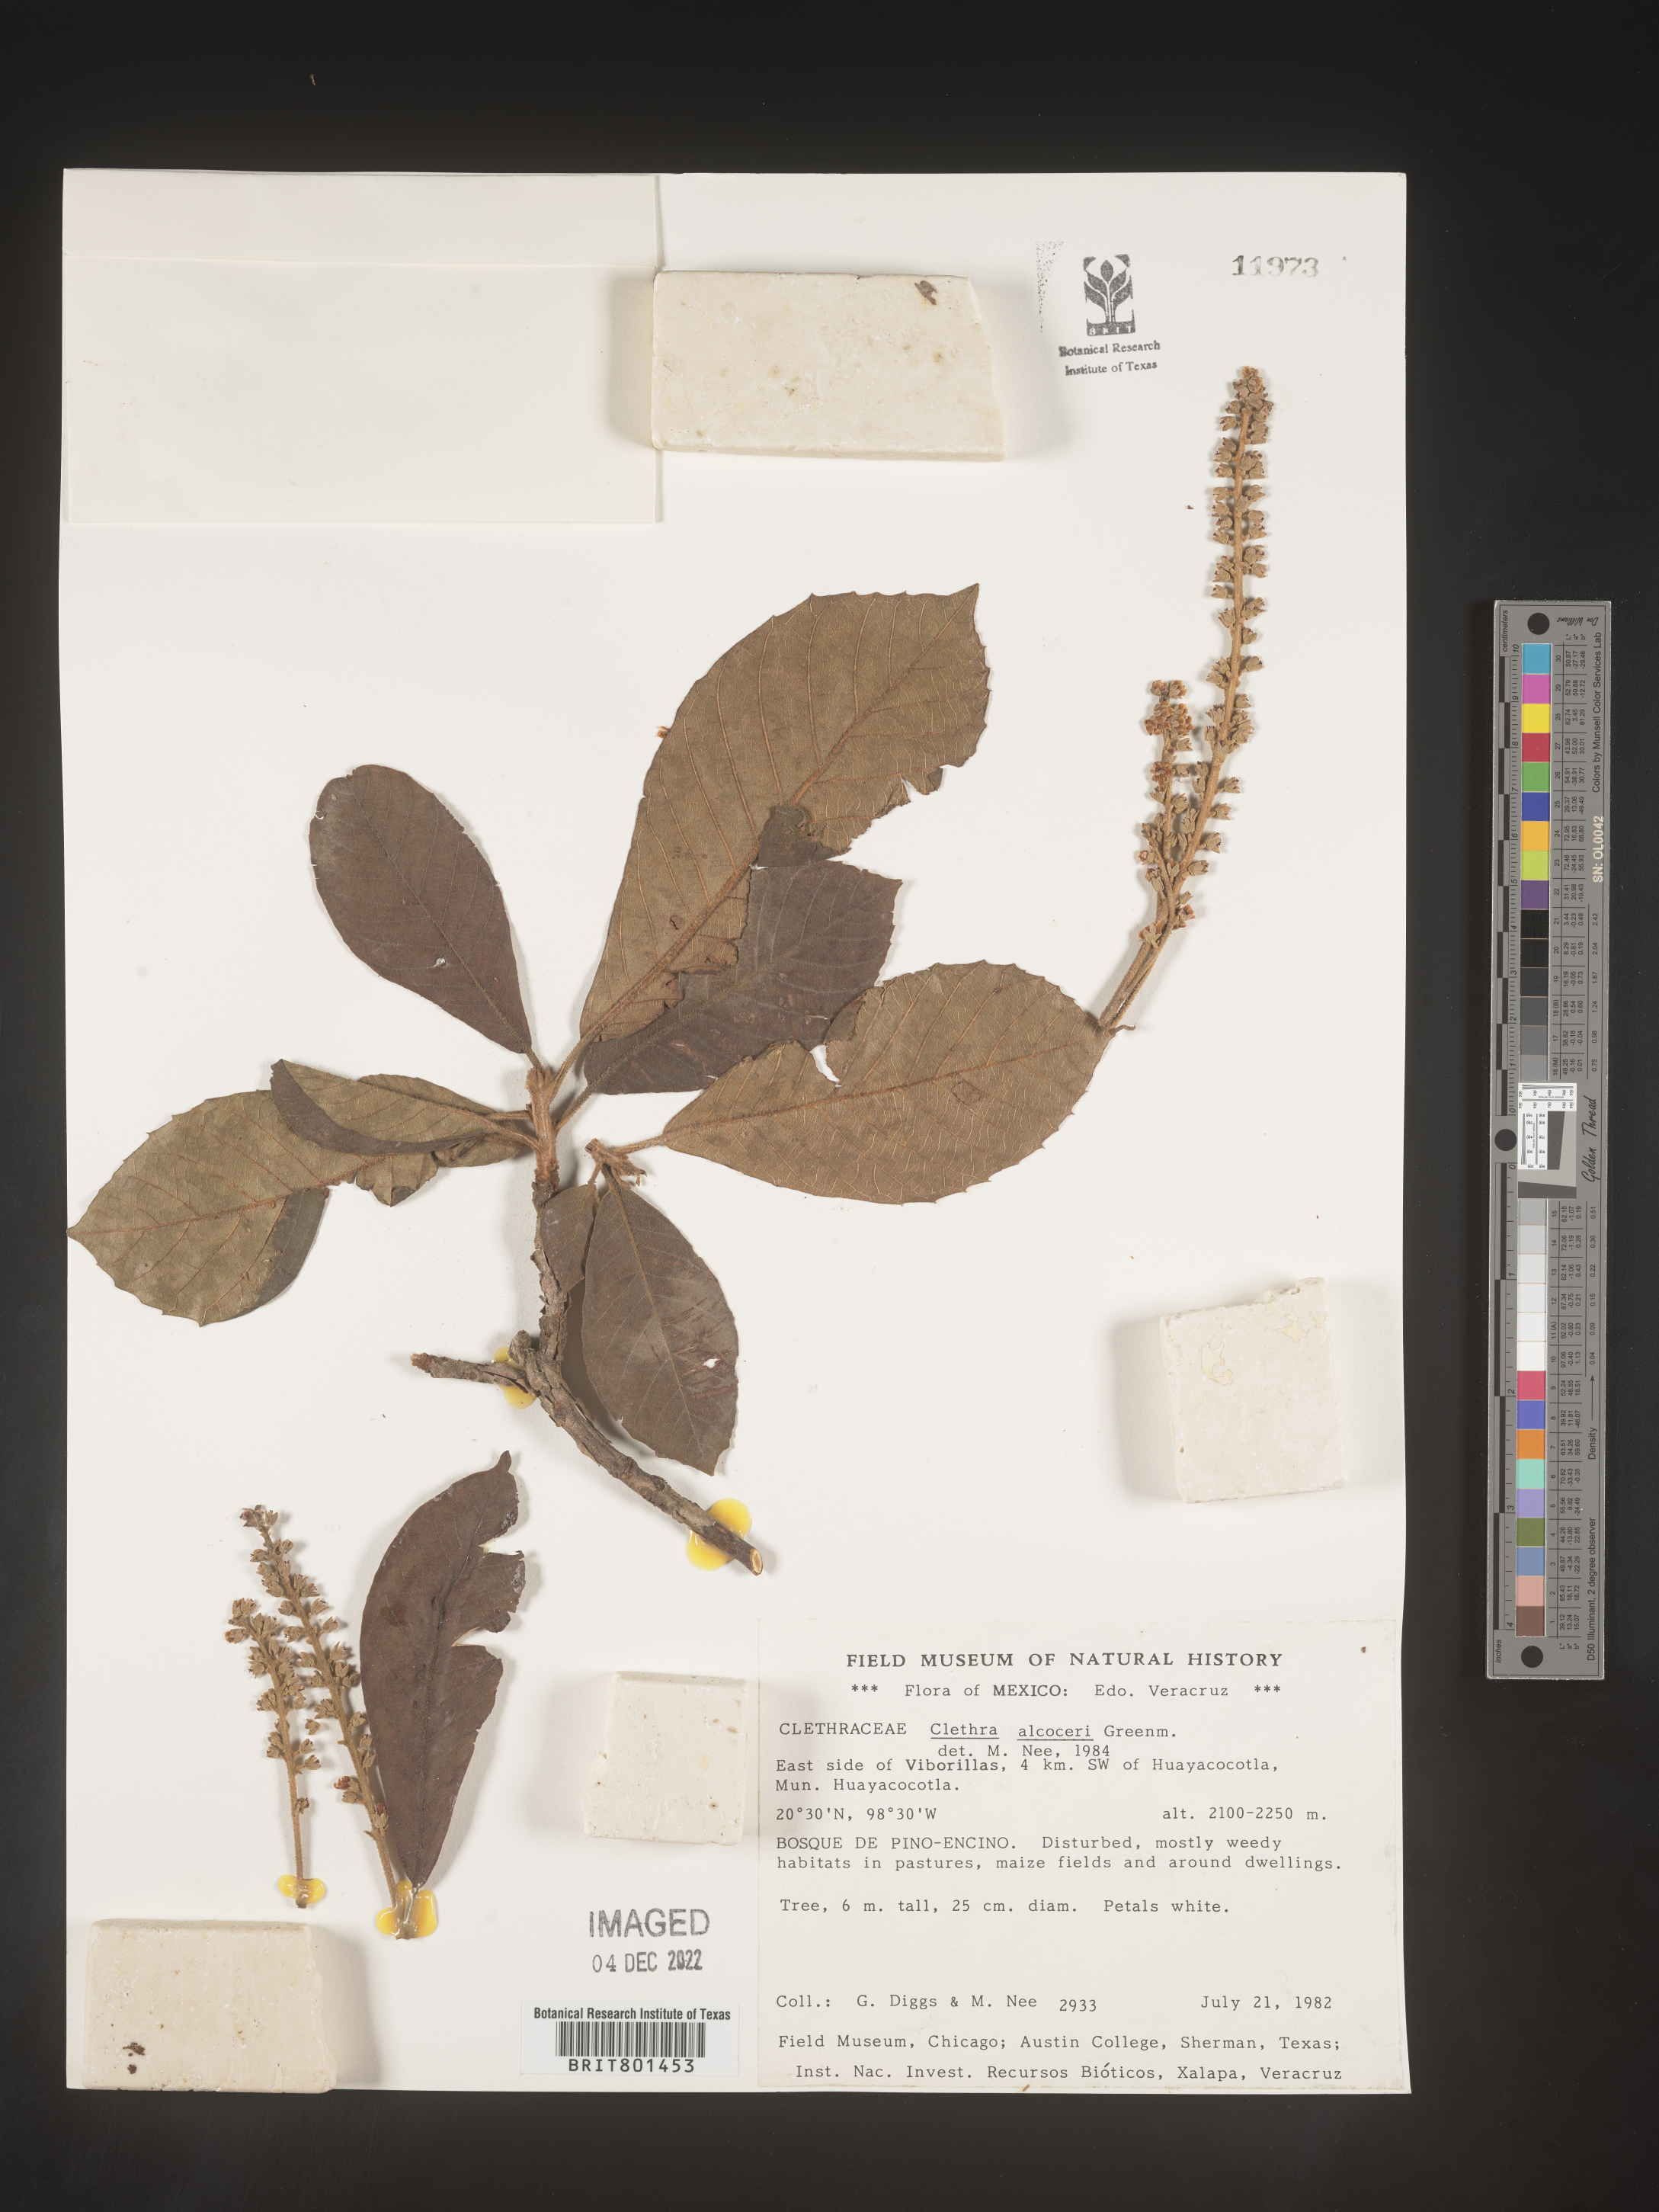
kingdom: Plantae
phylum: Tracheophyta
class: Magnoliopsida
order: Ericales
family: Clethraceae
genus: Clethra
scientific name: Clethra
